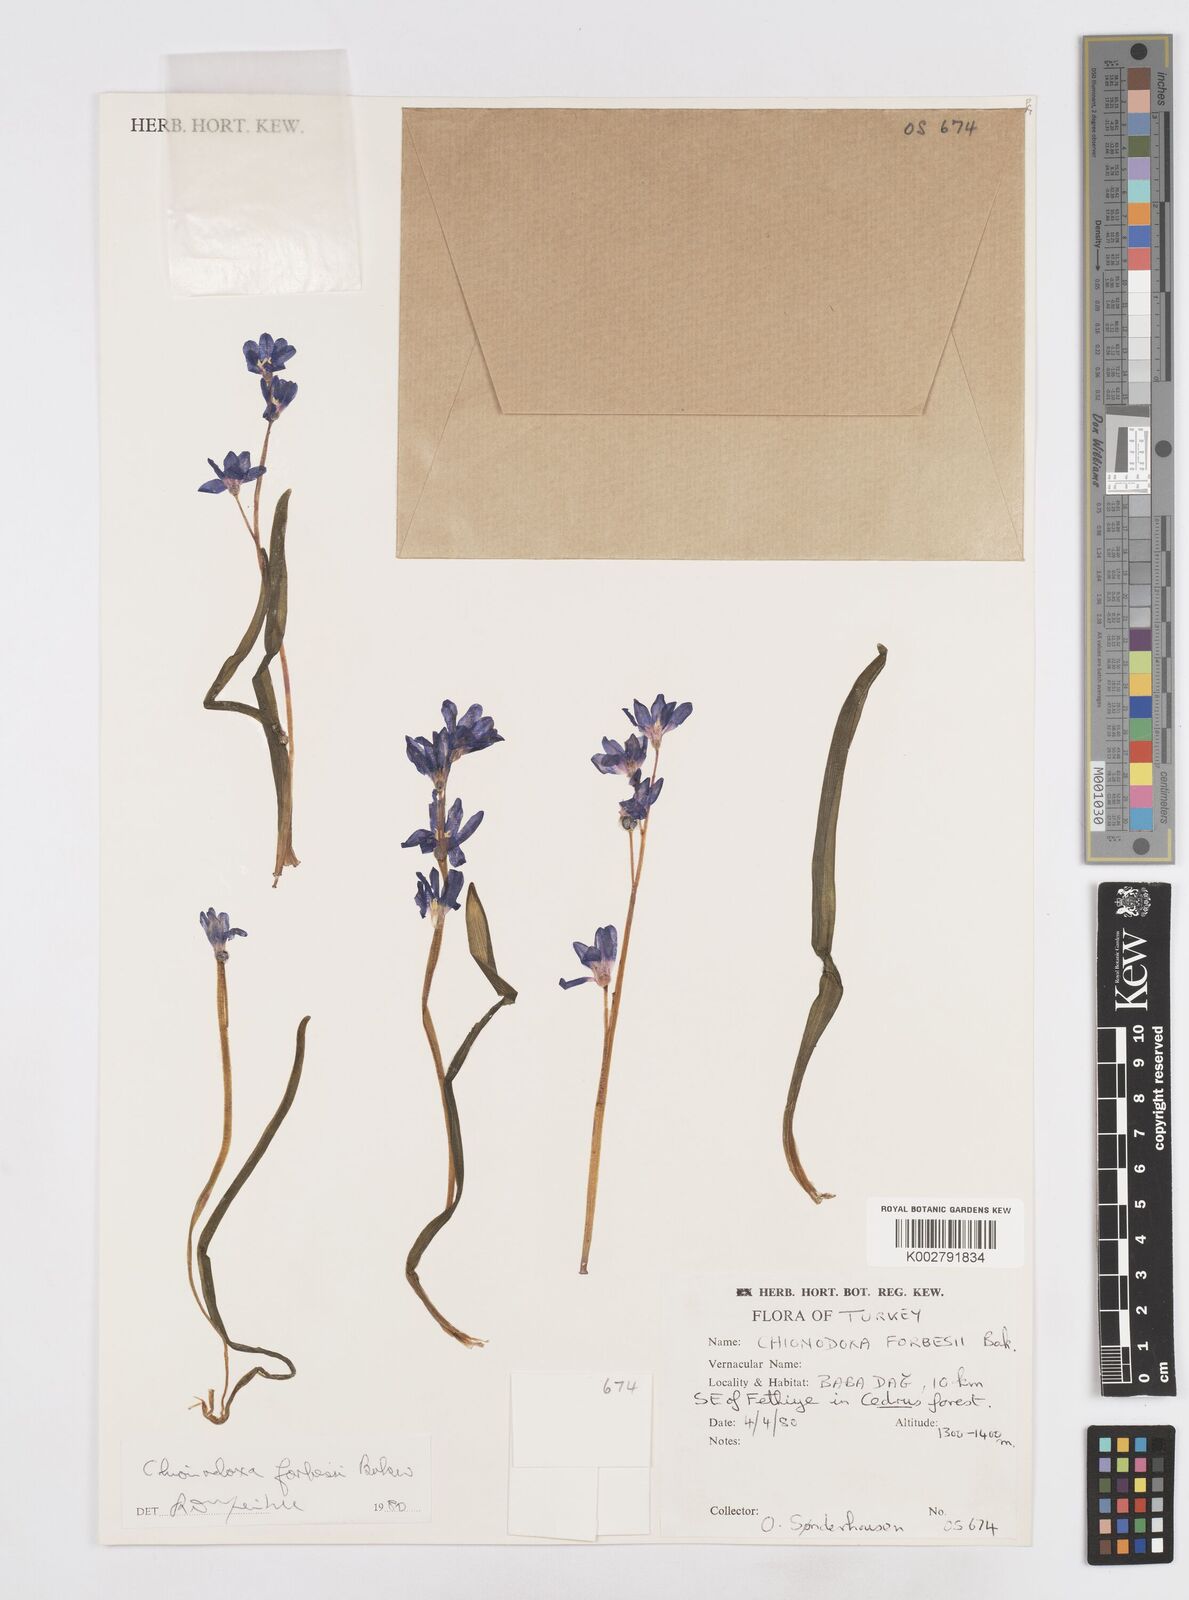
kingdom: Plantae
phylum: Tracheophyta
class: Liliopsida
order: Asparagales
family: Asparagaceae
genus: Scilla
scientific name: Scilla forbesii
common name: Glory-of-the-snow
